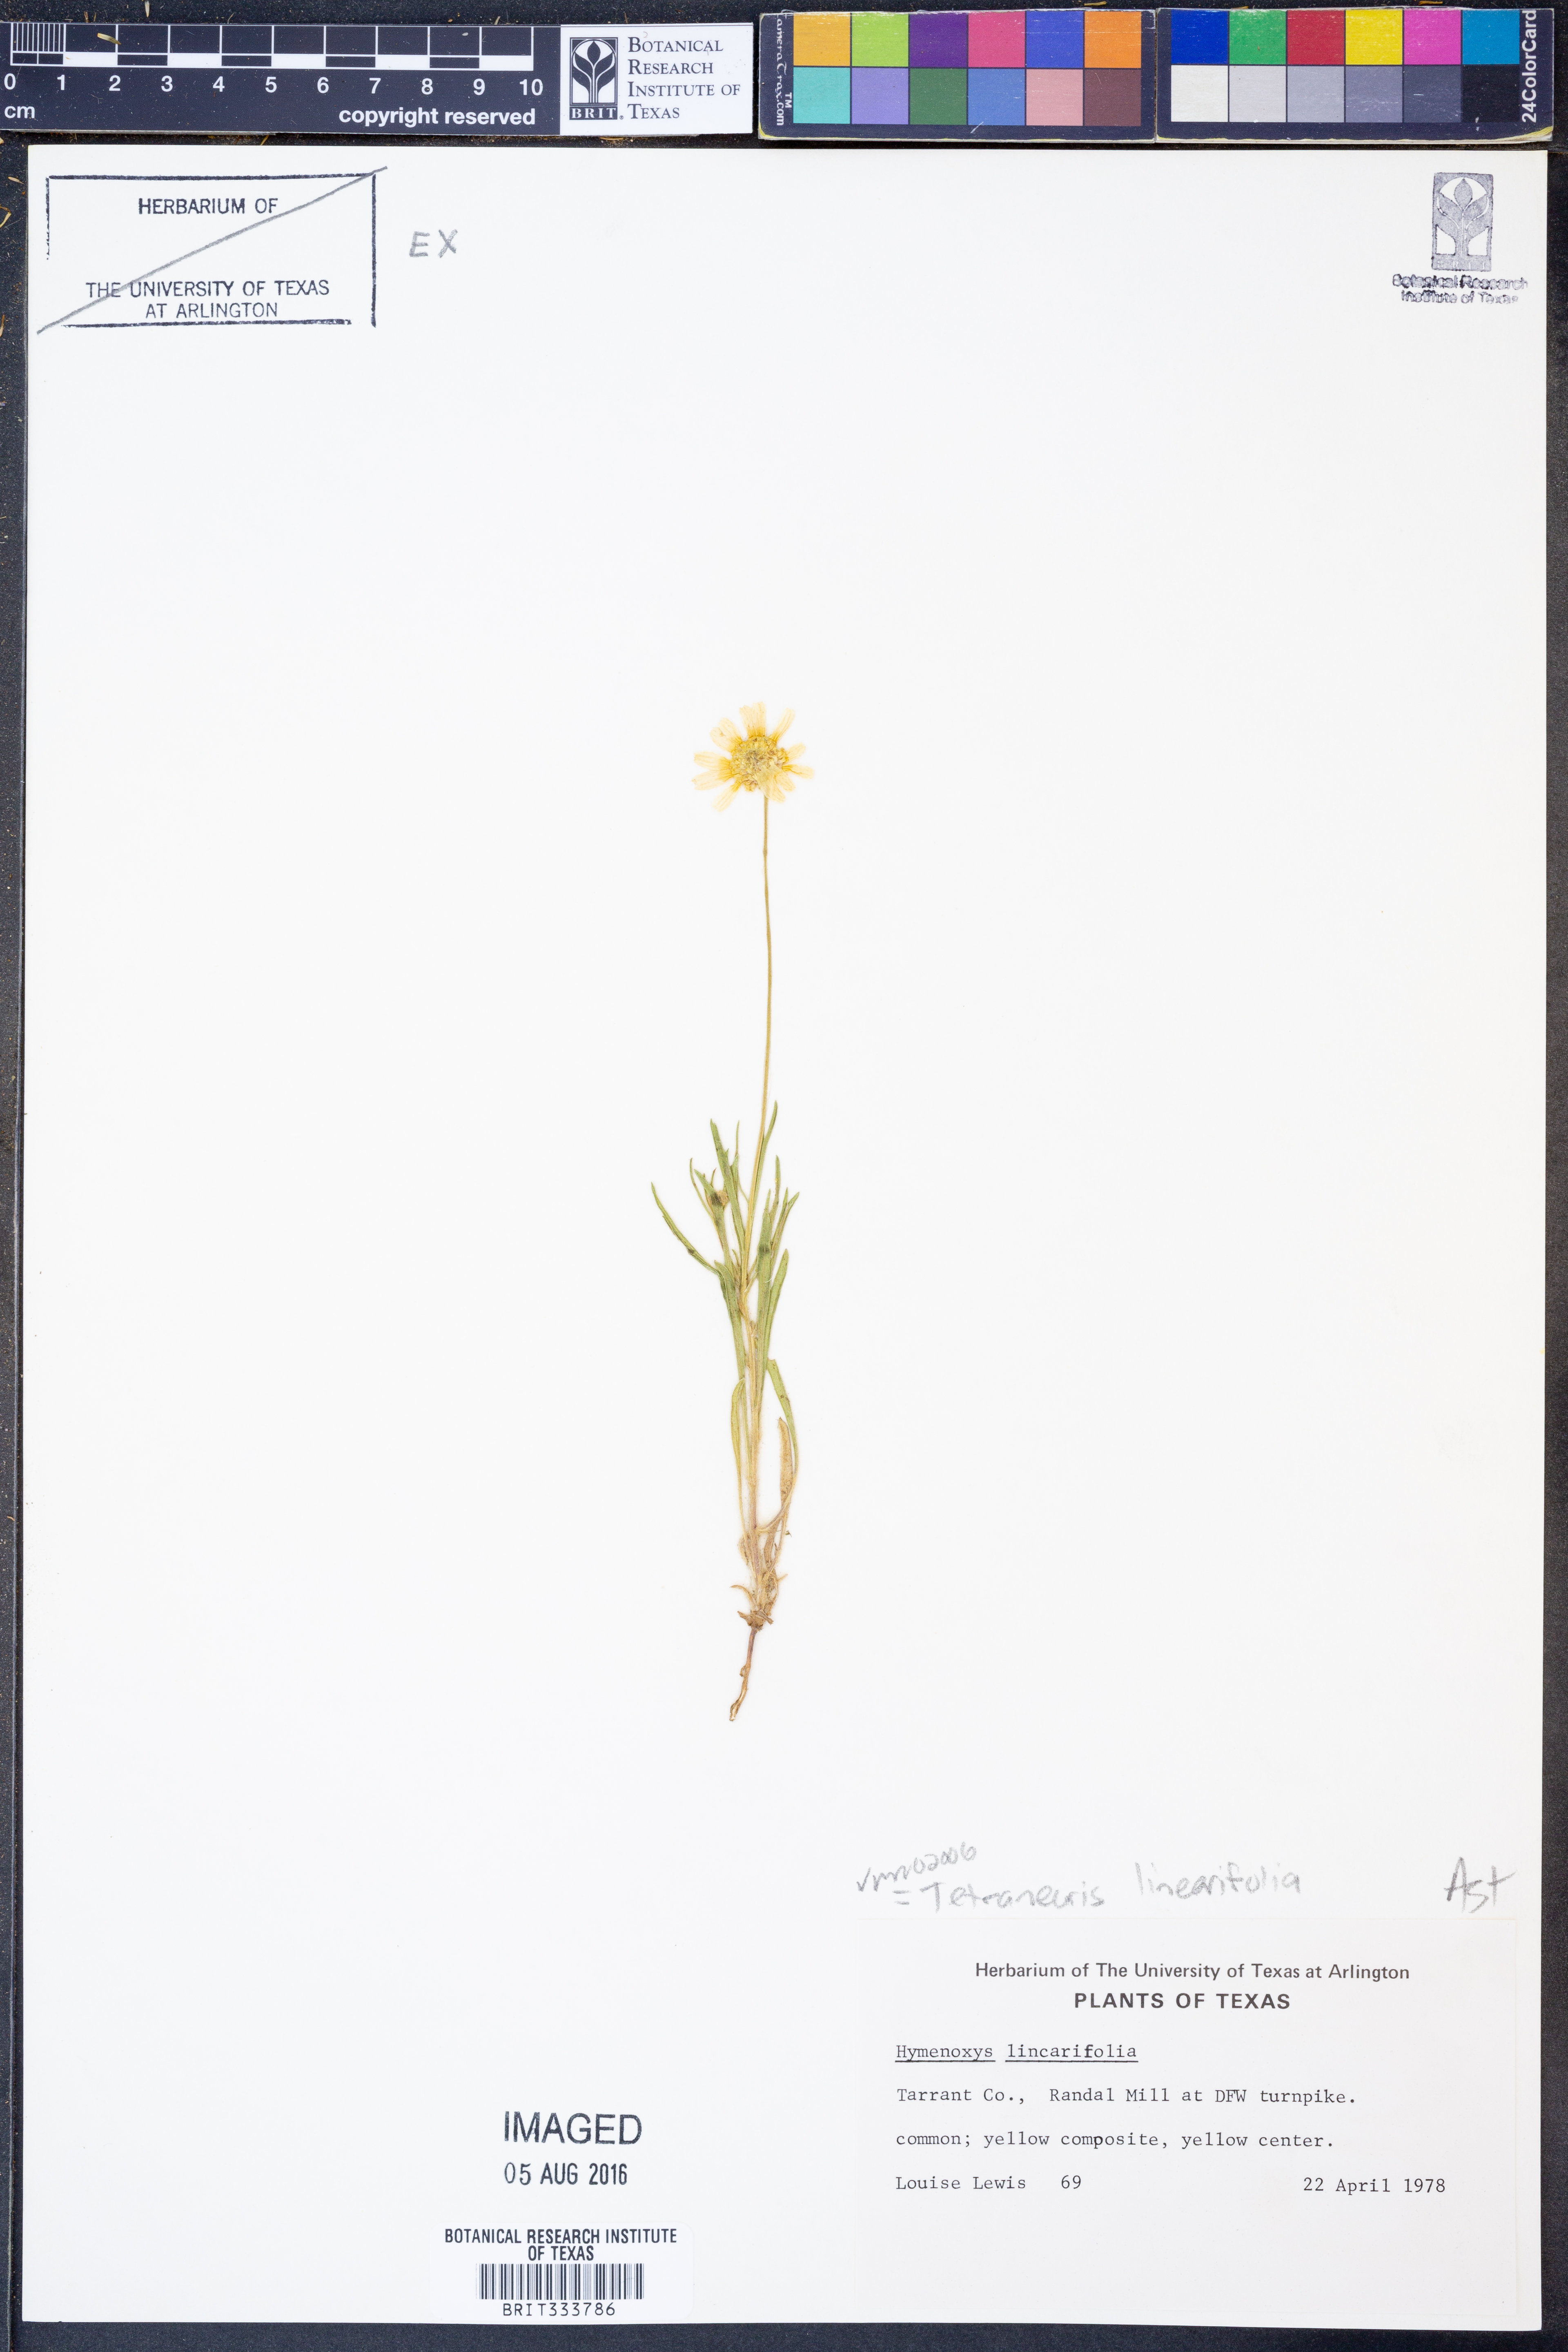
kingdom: Plantae
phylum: Tracheophyta
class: Magnoliopsida
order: Asterales
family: Asteraceae
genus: Tetraneuris
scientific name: Tetraneuris linearifolia
